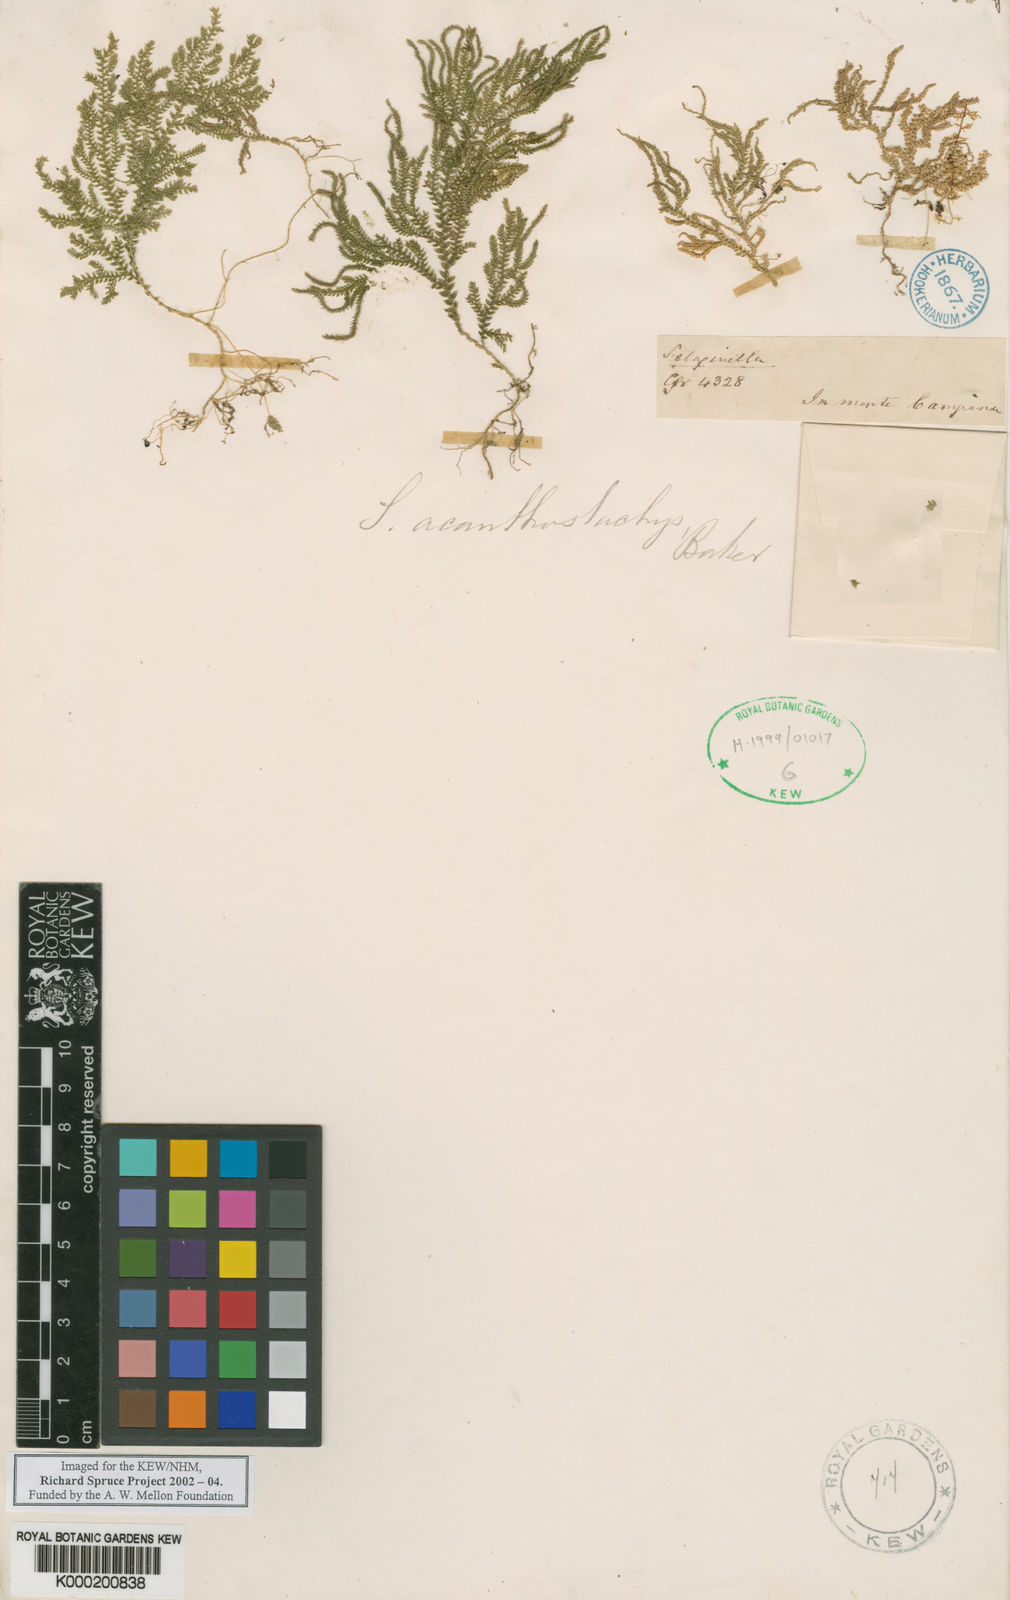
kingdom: Plantae
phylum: Tracheophyta
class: Lycopodiopsida
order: Selaginellales
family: Selaginellaceae
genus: Selaginella
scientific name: Selaginella acanthostachys
